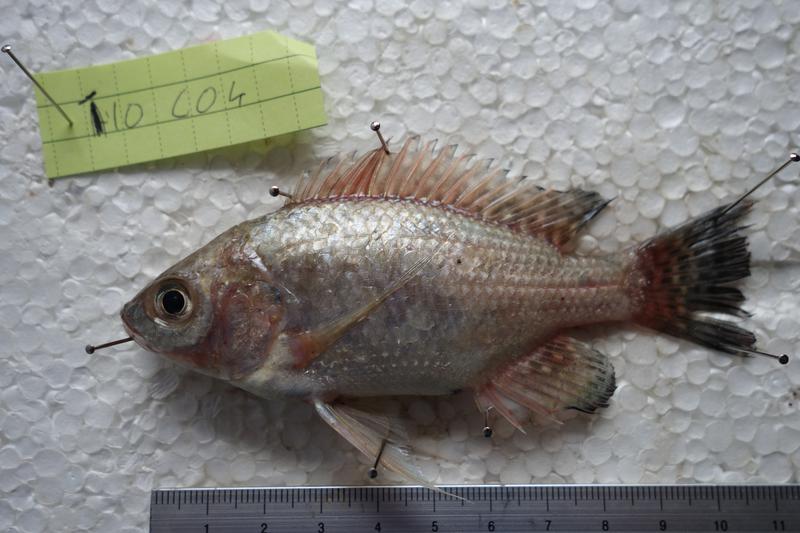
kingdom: Animalia
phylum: Chordata
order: Perciformes
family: Cichlidae
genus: Oreochromis
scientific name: Oreochromis esculentus
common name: Carp
